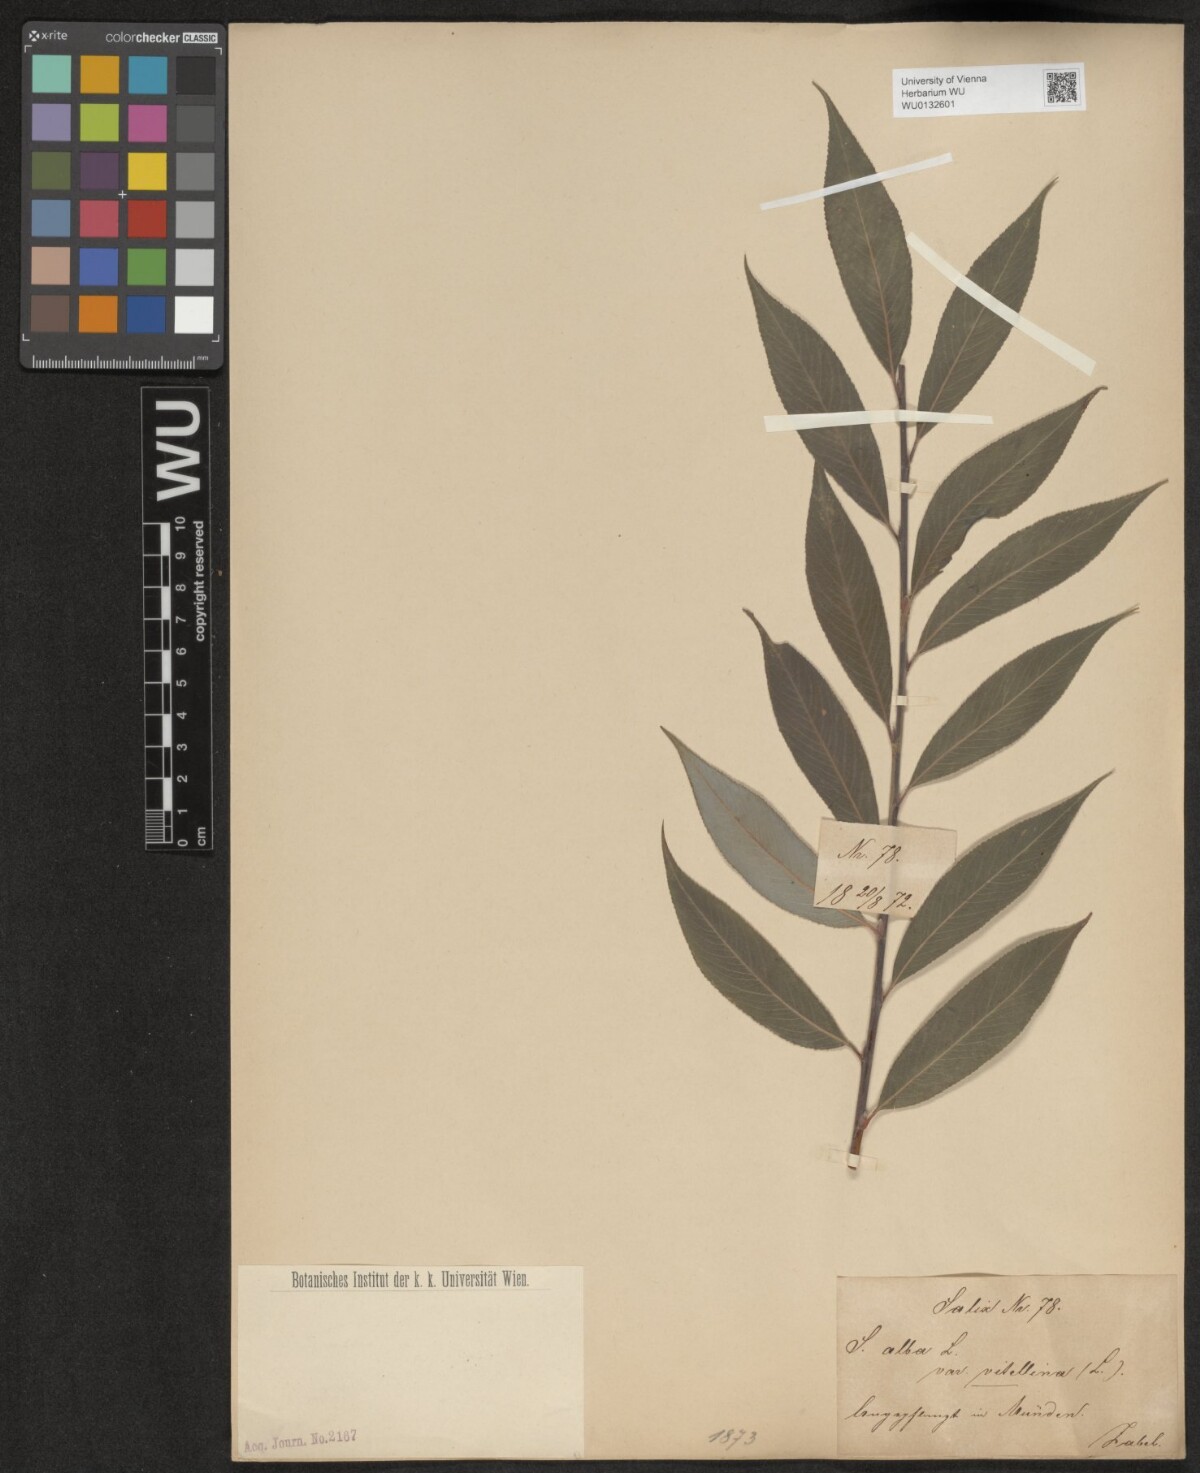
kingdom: Plantae
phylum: Tracheophyta
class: Magnoliopsida
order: Malpighiales
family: Salicaceae
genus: Salix
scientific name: Salix alba
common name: White willow
